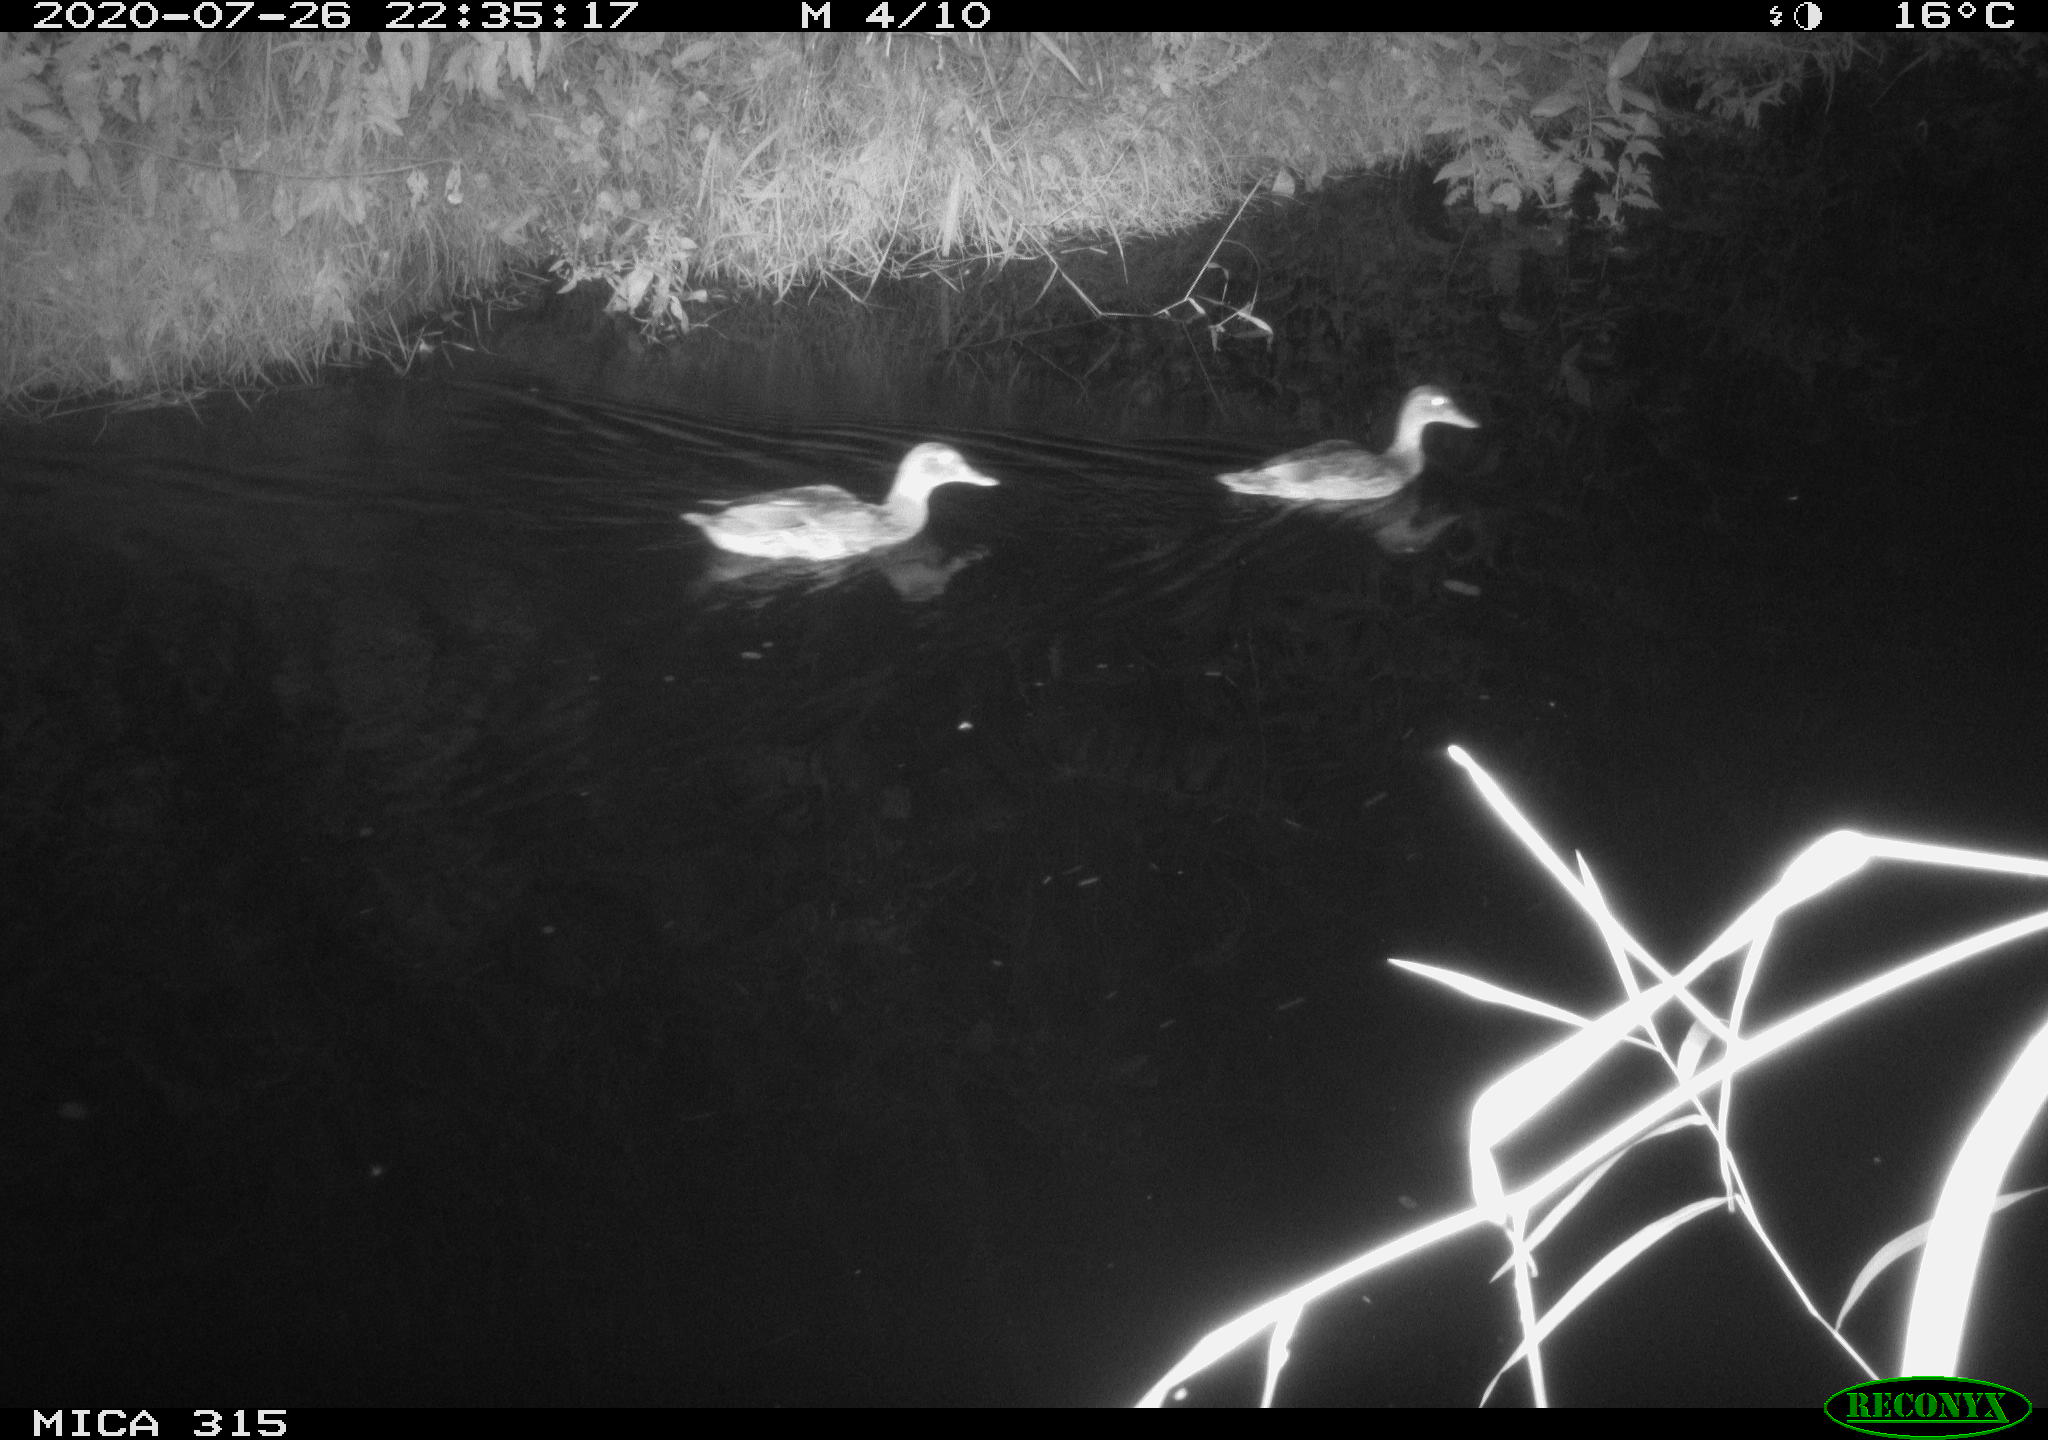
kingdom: Animalia
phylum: Chordata
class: Aves
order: Anseriformes
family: Anatidae
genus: Anas
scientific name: Anas platyrhynchos
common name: Mallard
